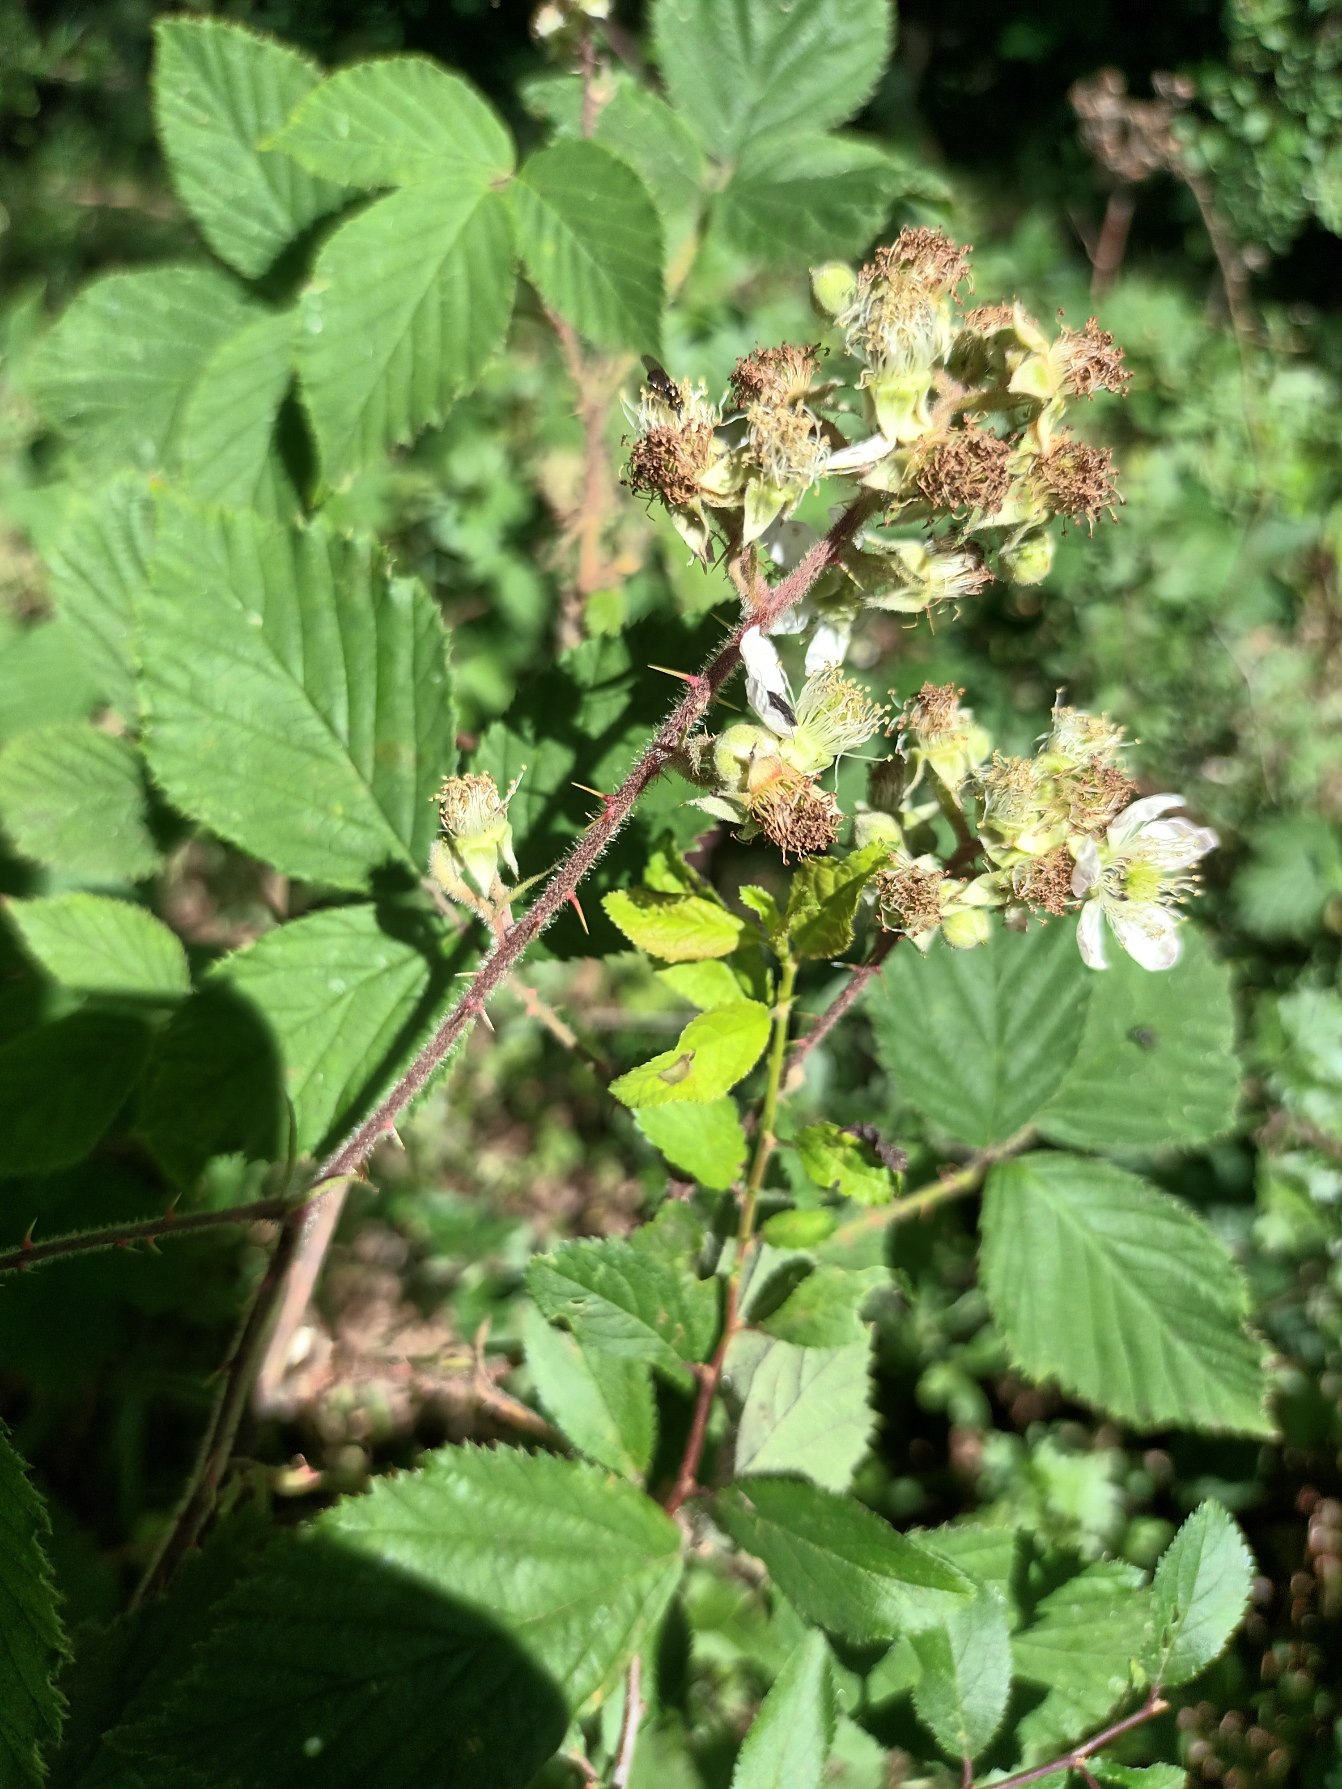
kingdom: Plantae
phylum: Tracheophyta
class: Magnoliopsida
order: Rosales
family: Rosaceae
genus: Rubus
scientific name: Rubus radula
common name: Rasperu brombær
